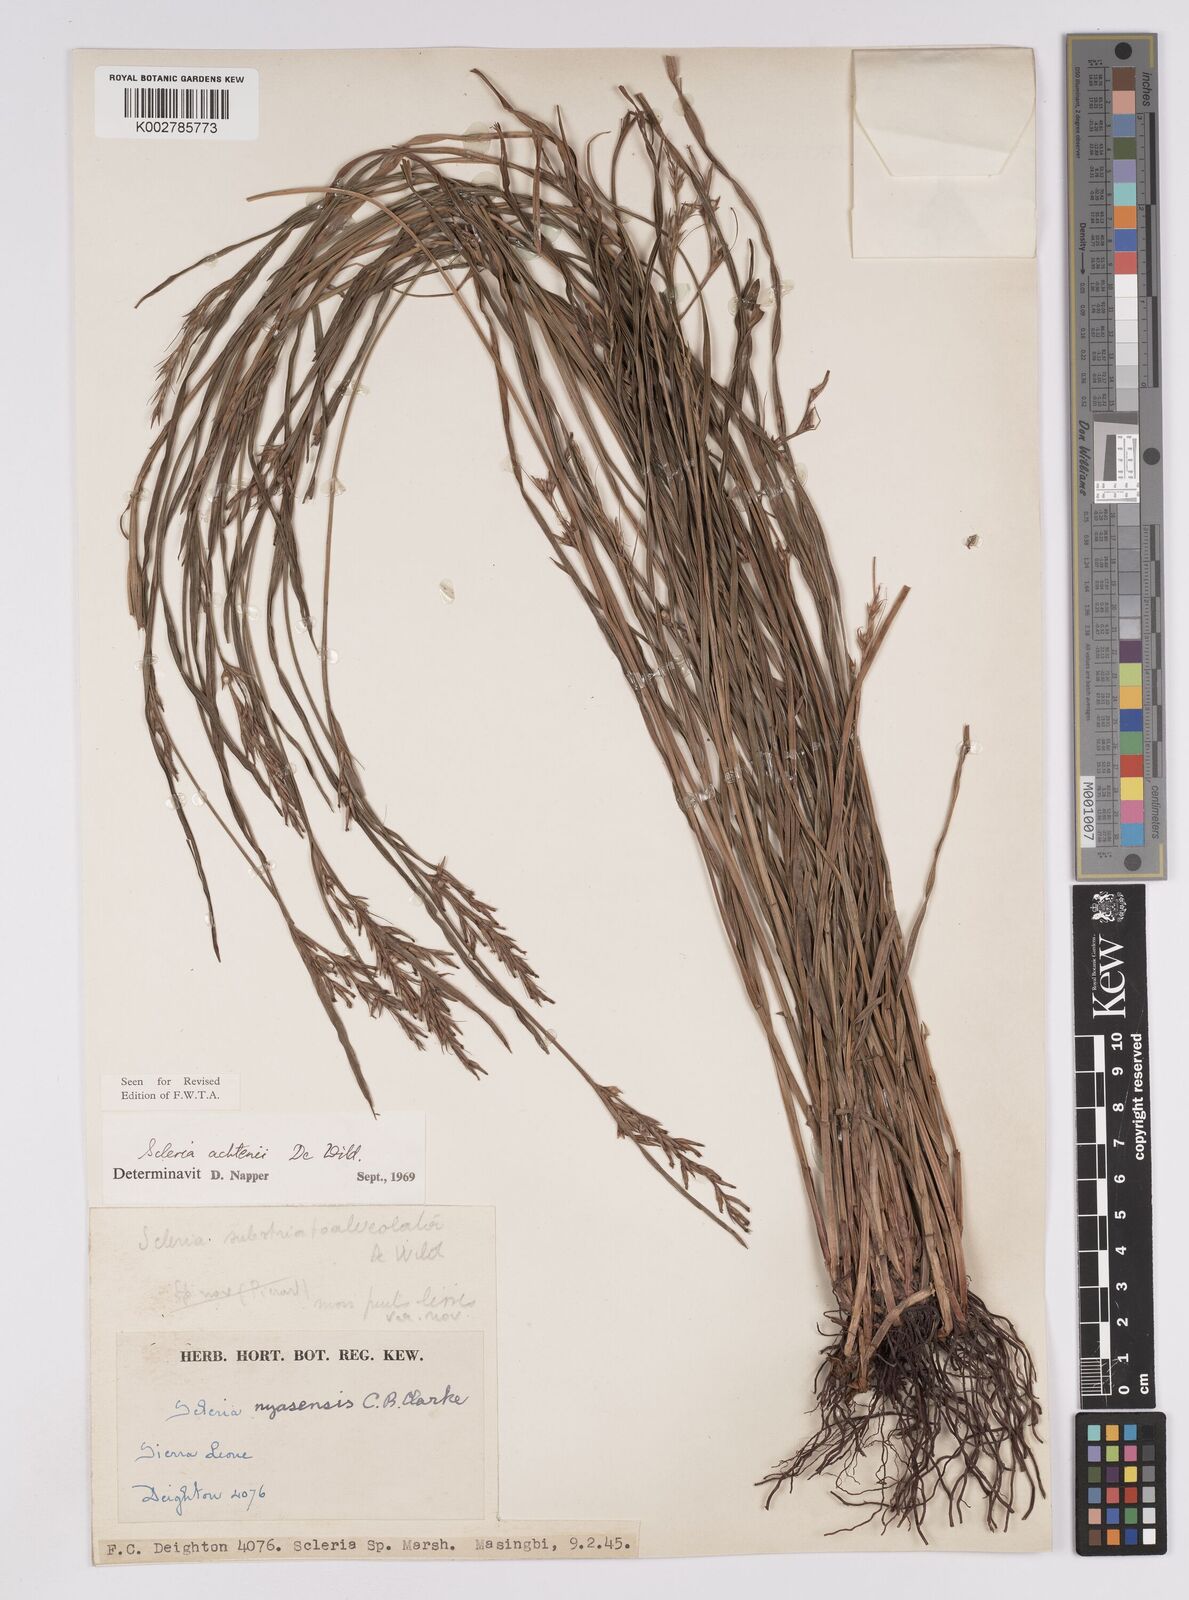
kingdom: Plantae
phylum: Tracheophyta
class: Liliopsida
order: Poales
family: Cyperaceae
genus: Scleria
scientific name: Scleria achtenii
